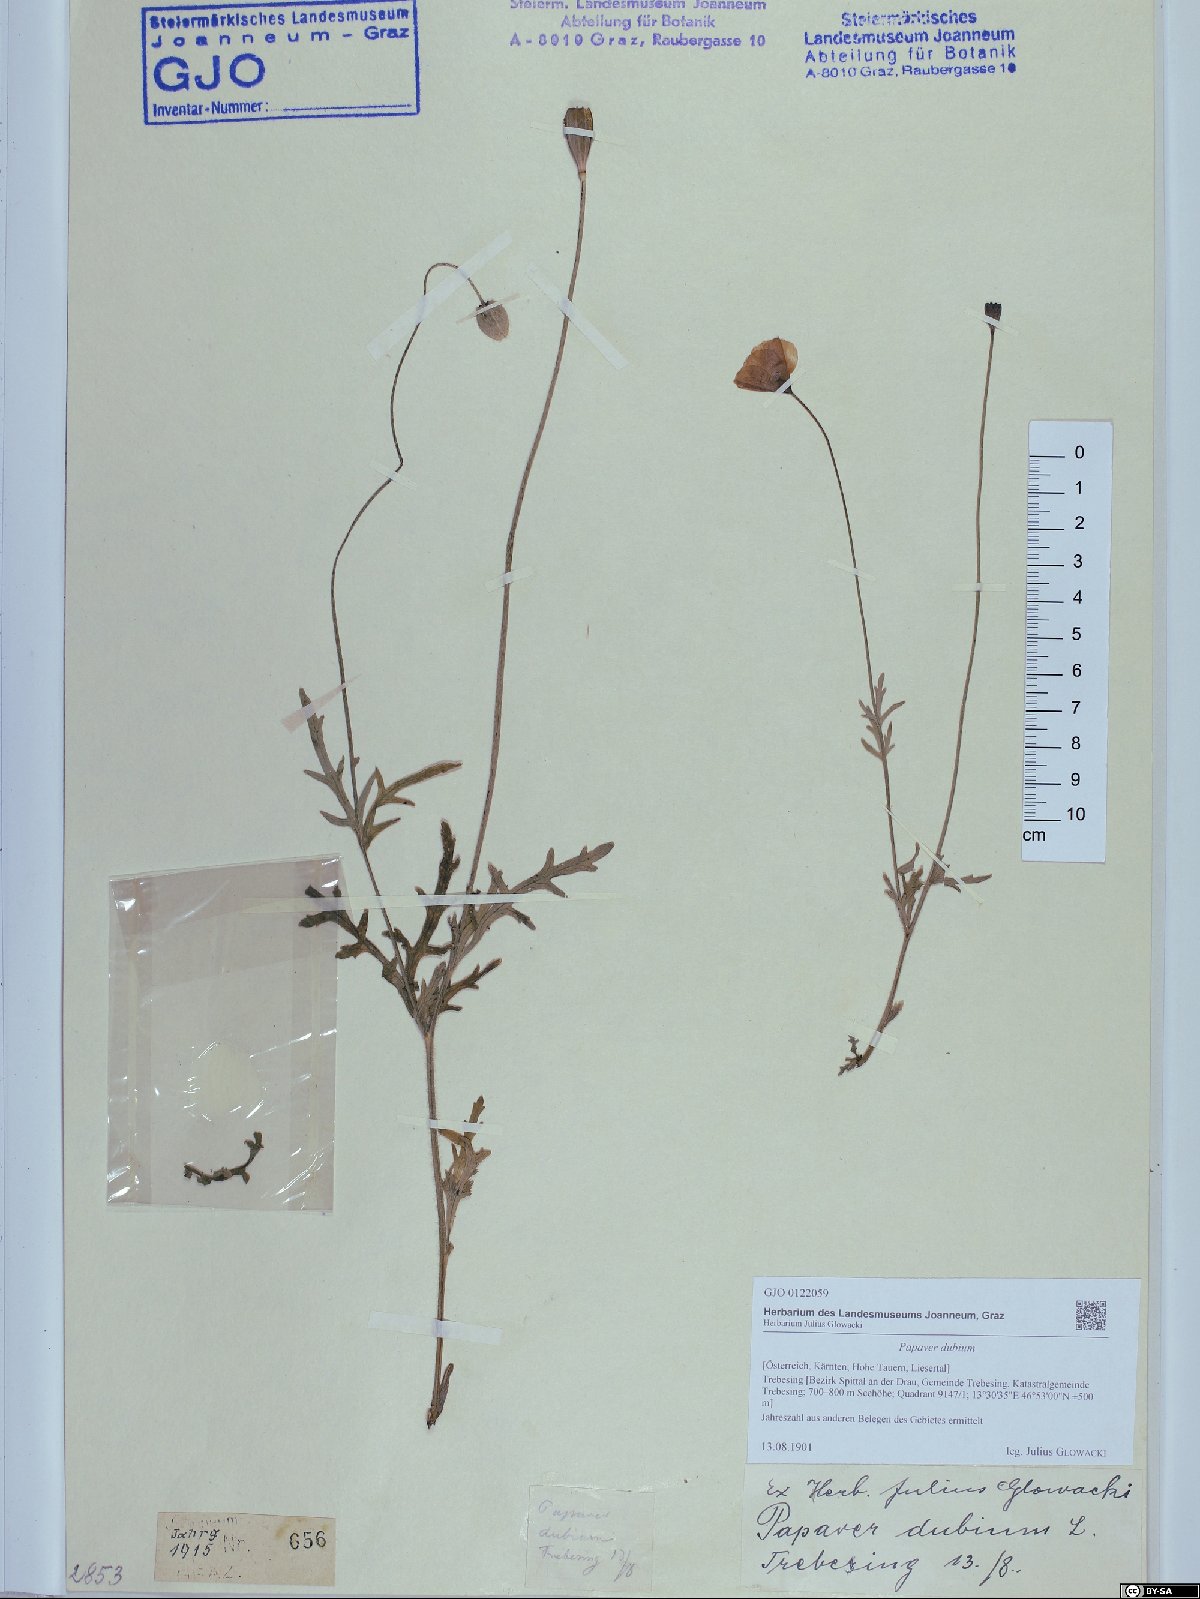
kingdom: Plantae
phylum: Tracheophyta
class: Magnoliopsida
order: Ranunculales
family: Papaveraceae
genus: Papaver
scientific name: Papaver dubium
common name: Long-headed poppy
